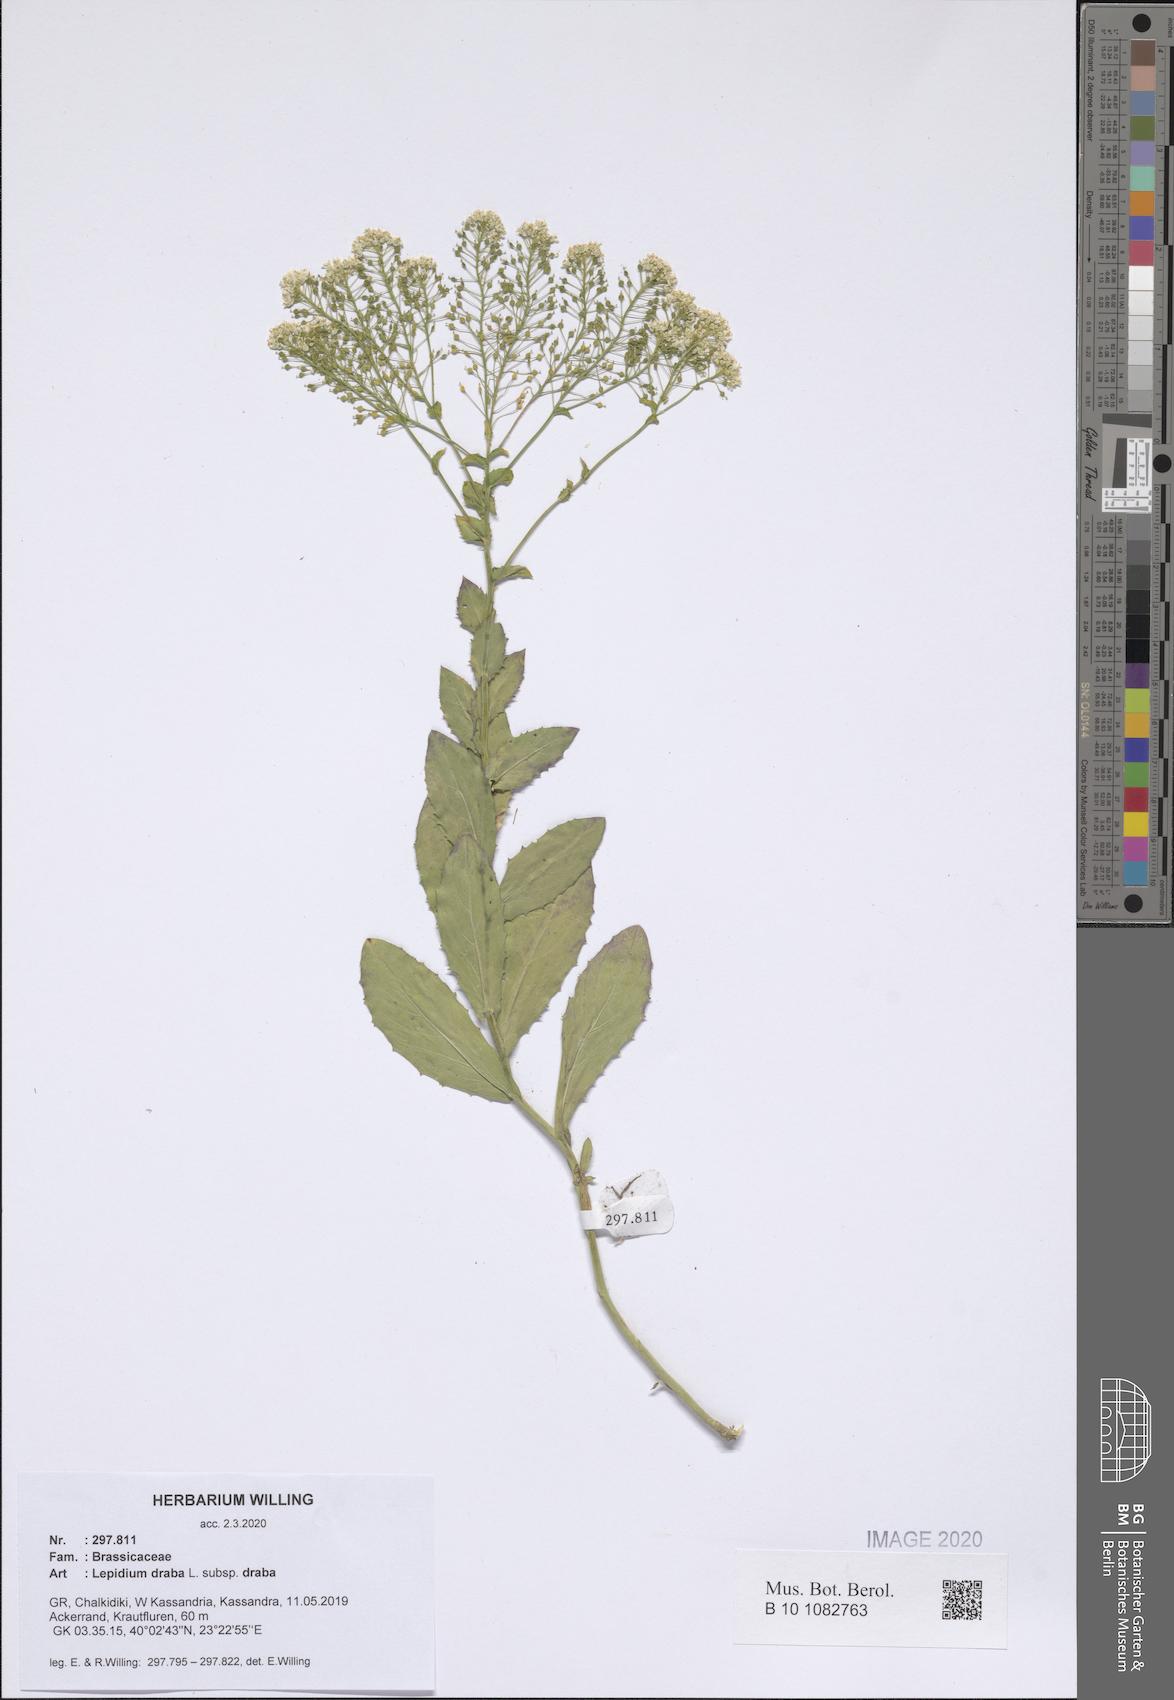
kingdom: Plantae
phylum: Tracheophyta
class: Magnoliopsida
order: Brassicales
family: Brassicaceae
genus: Lepidium
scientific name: Lepidium draba
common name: Hoary cress
